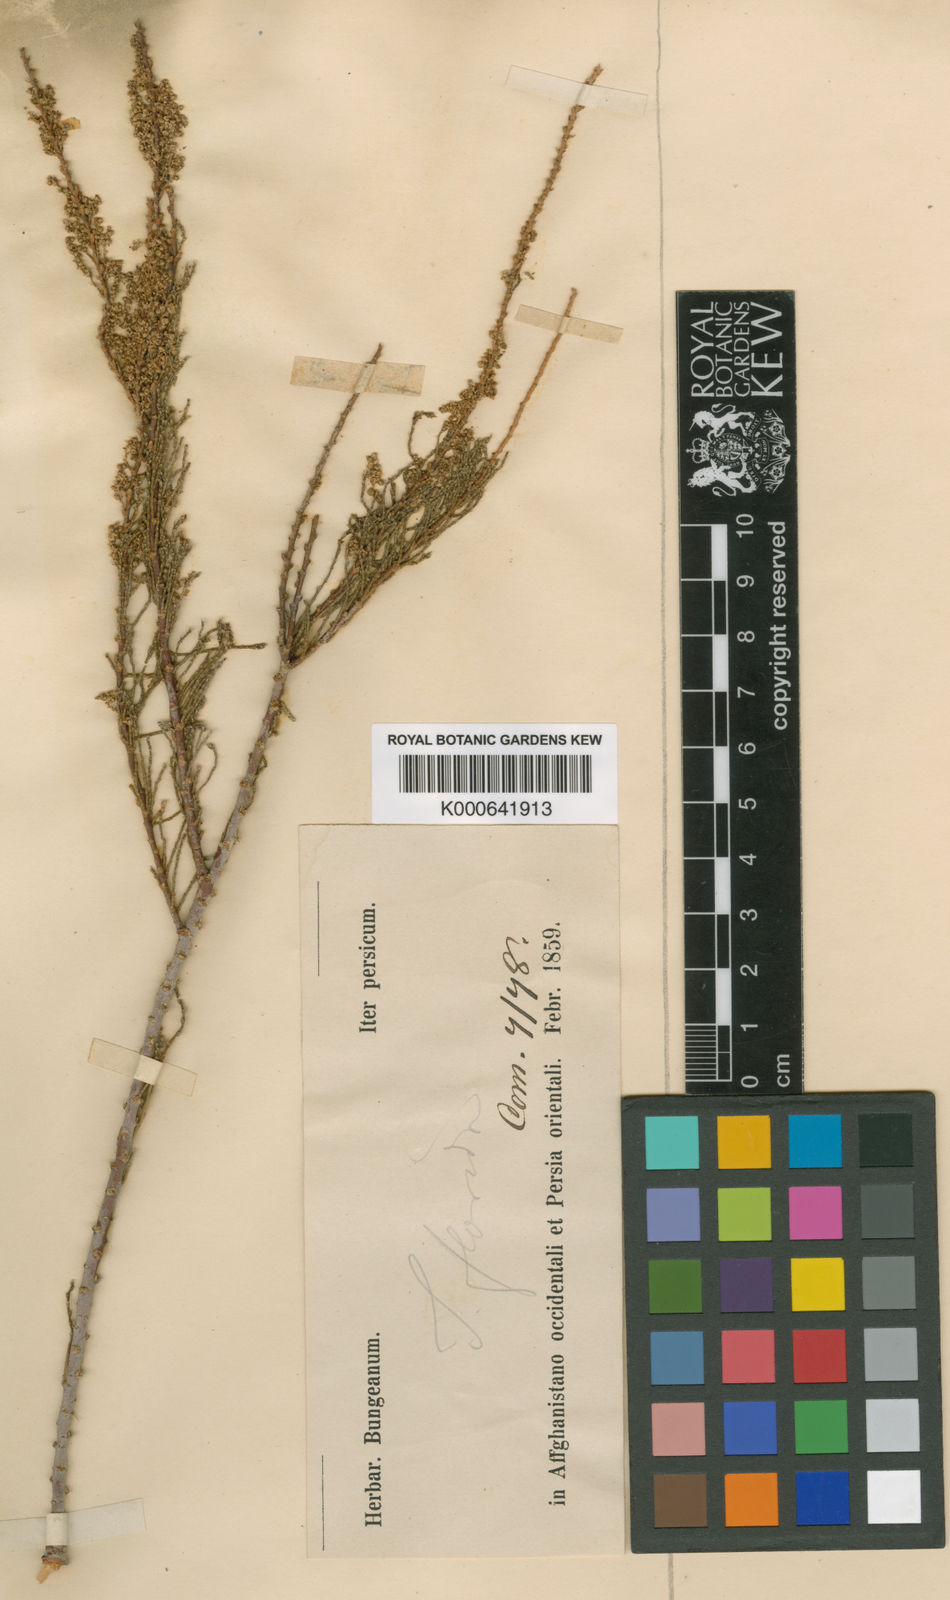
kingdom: Plantae
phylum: Tracheophyta
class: Magnoliopsida
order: Caryophyllales
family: Tamaricaceae
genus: Tamarix
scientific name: Tamarix karelinii
